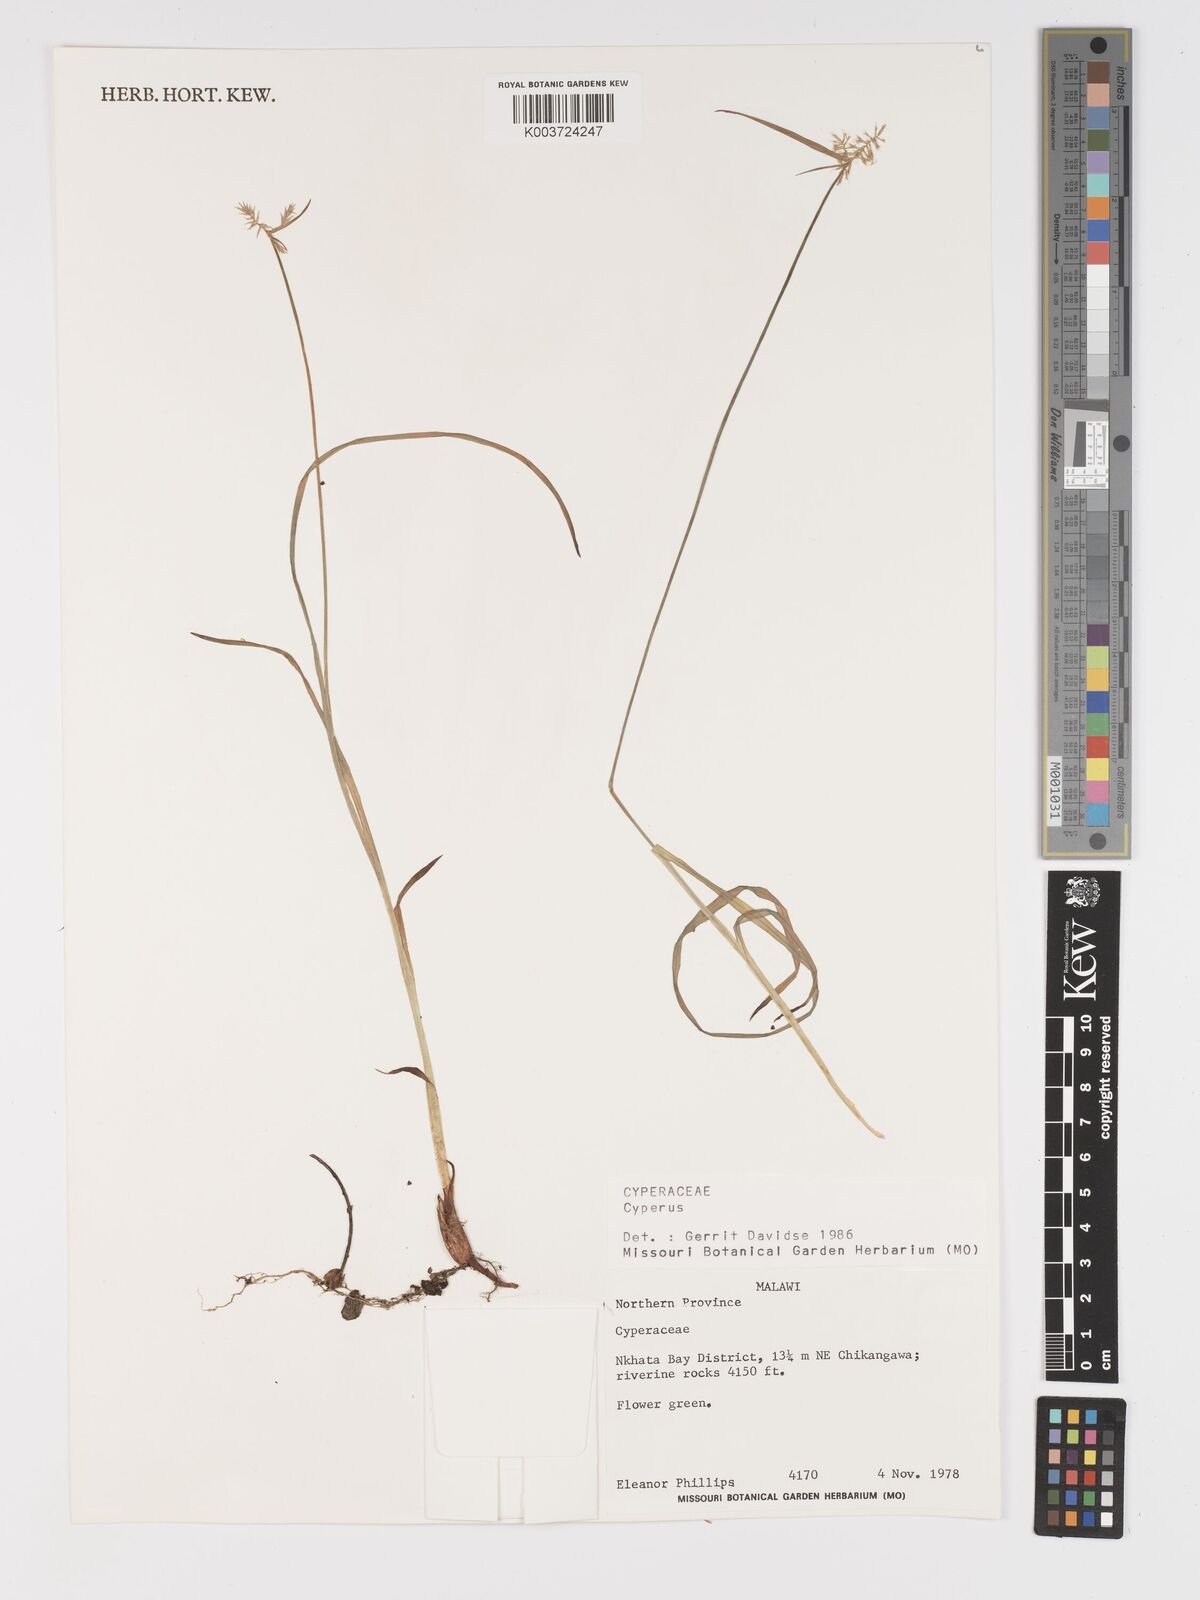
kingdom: Plantae
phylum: Tracheophyta
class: Liliopsida
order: Poales
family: Cyperaceae
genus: Cyperus
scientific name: Cyperus
